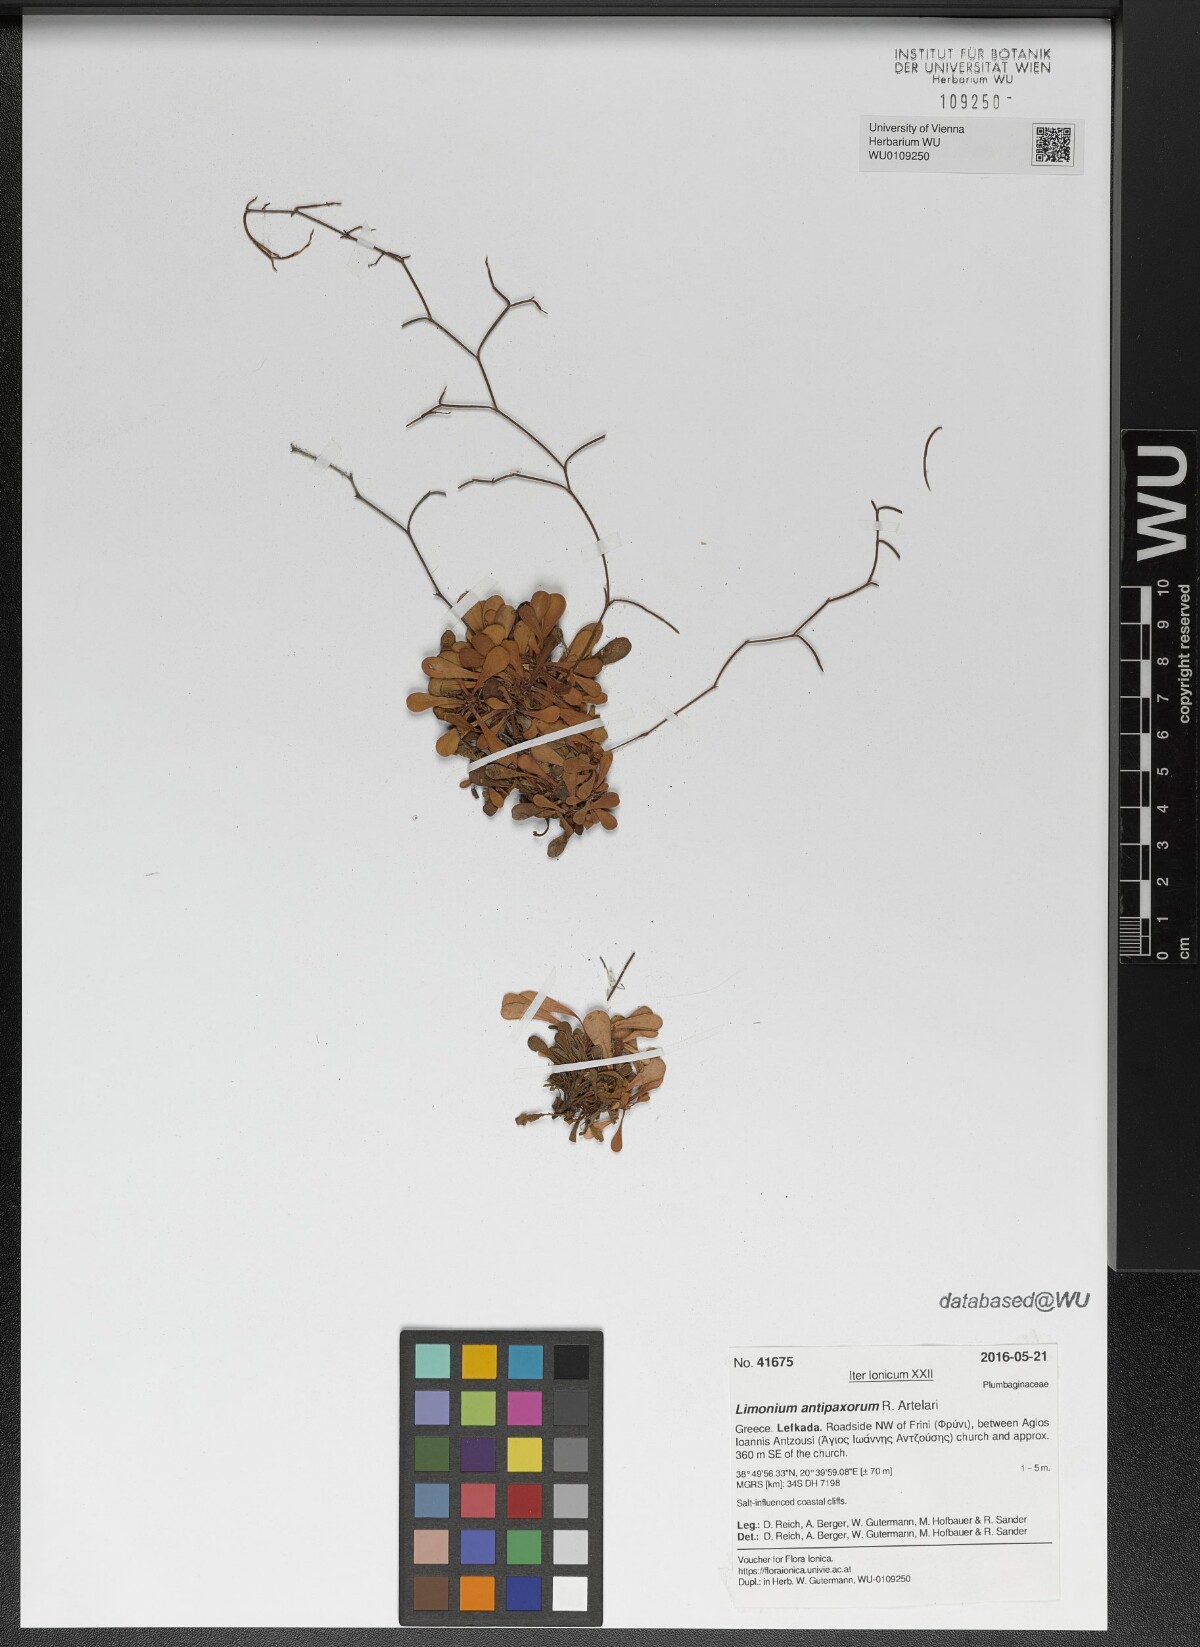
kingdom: Plantae
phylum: Tracheophyta
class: Magnoliopsida
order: Caryophyllales
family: Plumbaginaceae
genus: Limonium
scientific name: Limonium antipaxorum
